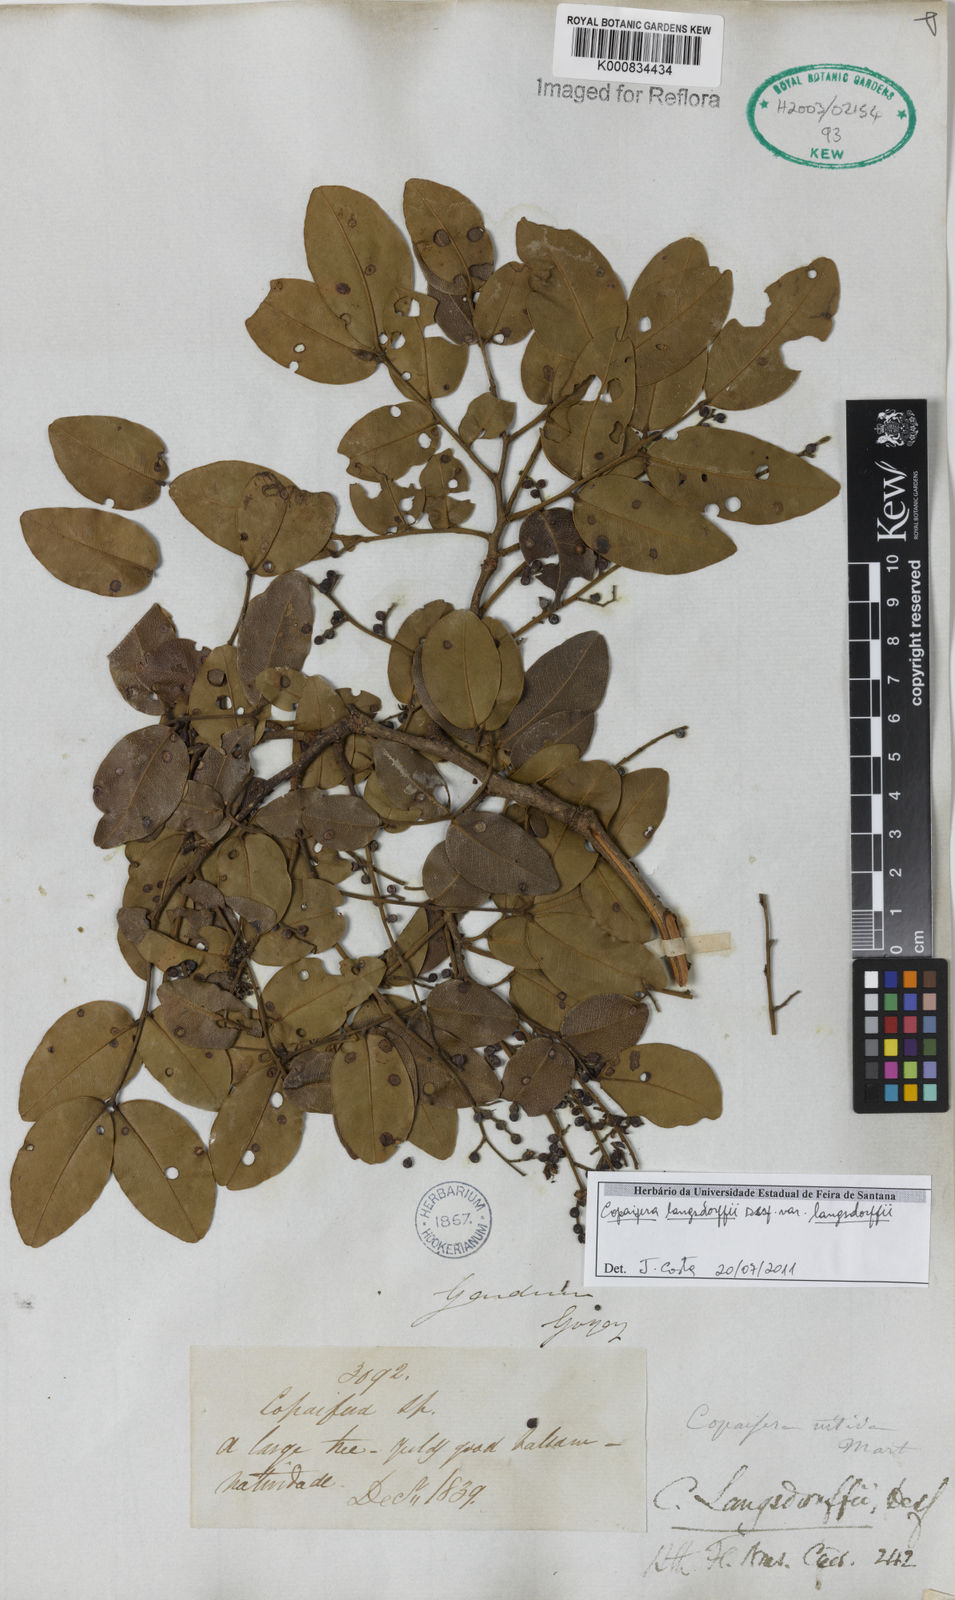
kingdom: Plantae
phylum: Tracheophyta
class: Magnoliopsida
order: Fabales
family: Fabaceae
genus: Copaifera
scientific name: Copaifera langsdorffii
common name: Brazilian diesel tree
